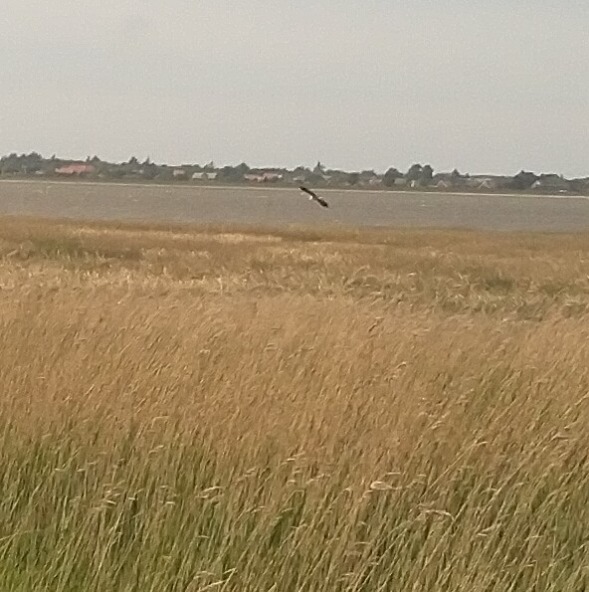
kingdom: Animalia
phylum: Chordata
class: Aves
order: Pelecaniformes
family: Ardeidae
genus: Ardea
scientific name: Ardea cinerea
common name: Fiskehejre
